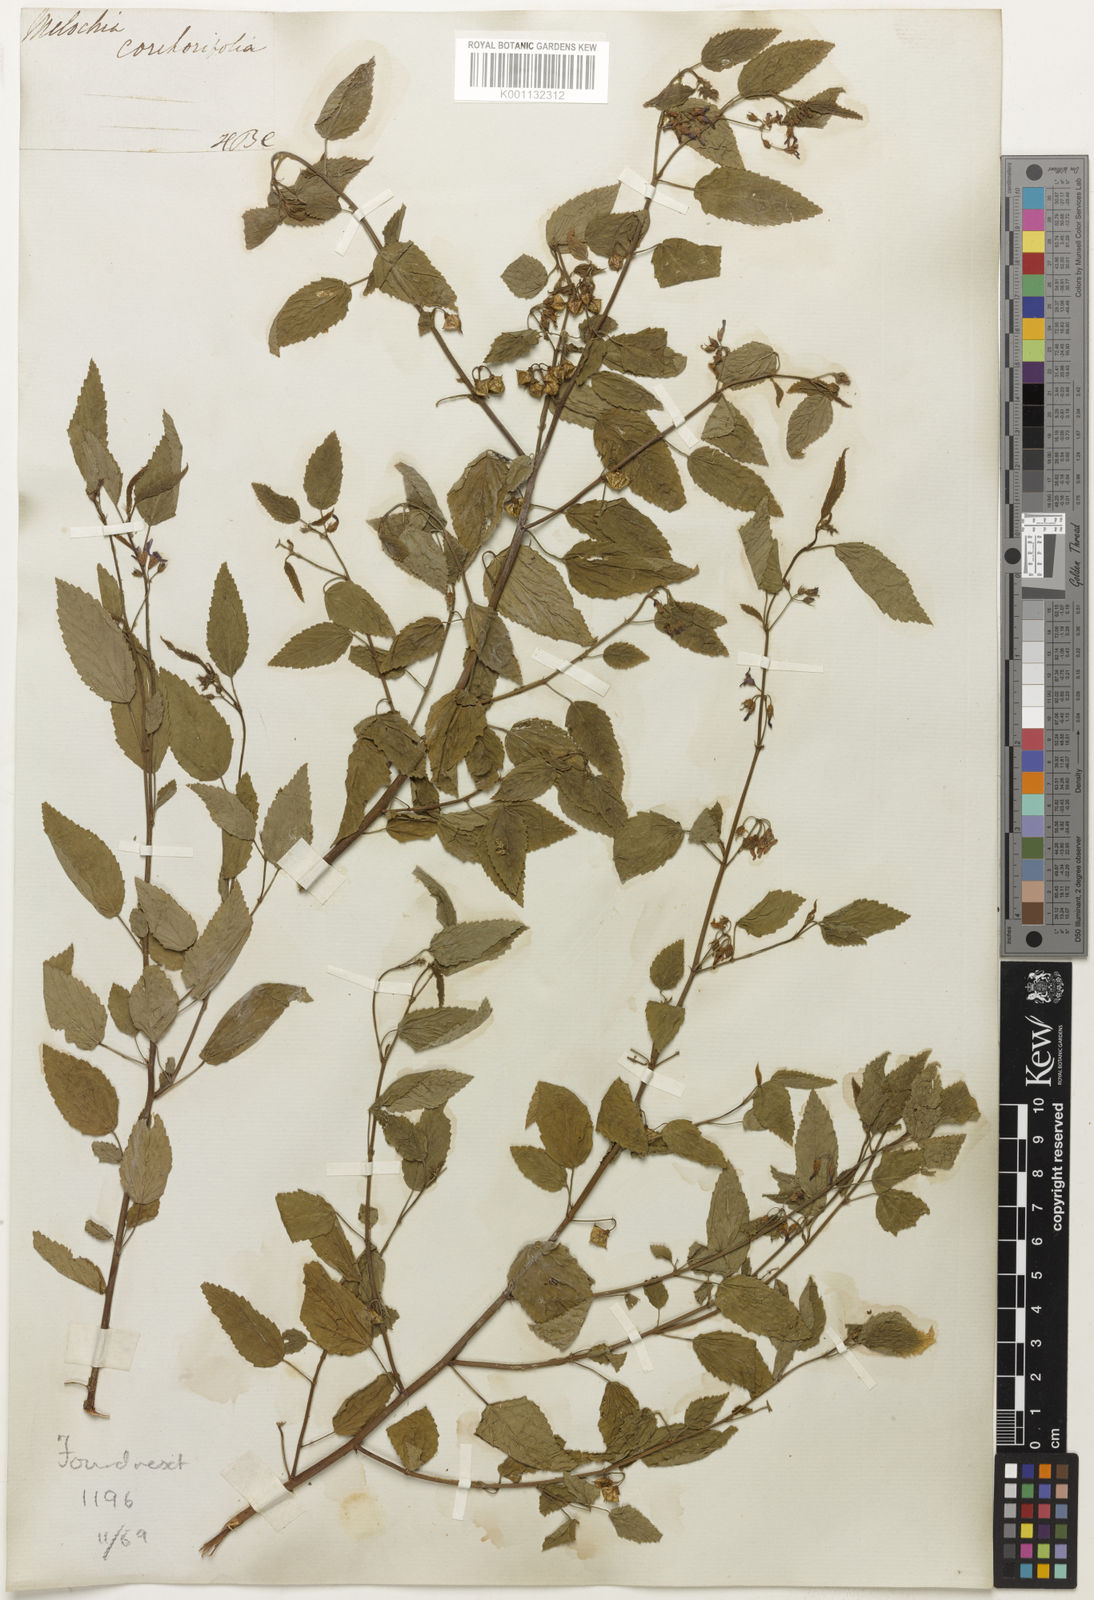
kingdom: Plantae
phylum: Tracheophyta
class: Magnoliopsida
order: Malvales
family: Malvaceae
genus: Melochia
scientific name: Melochia
